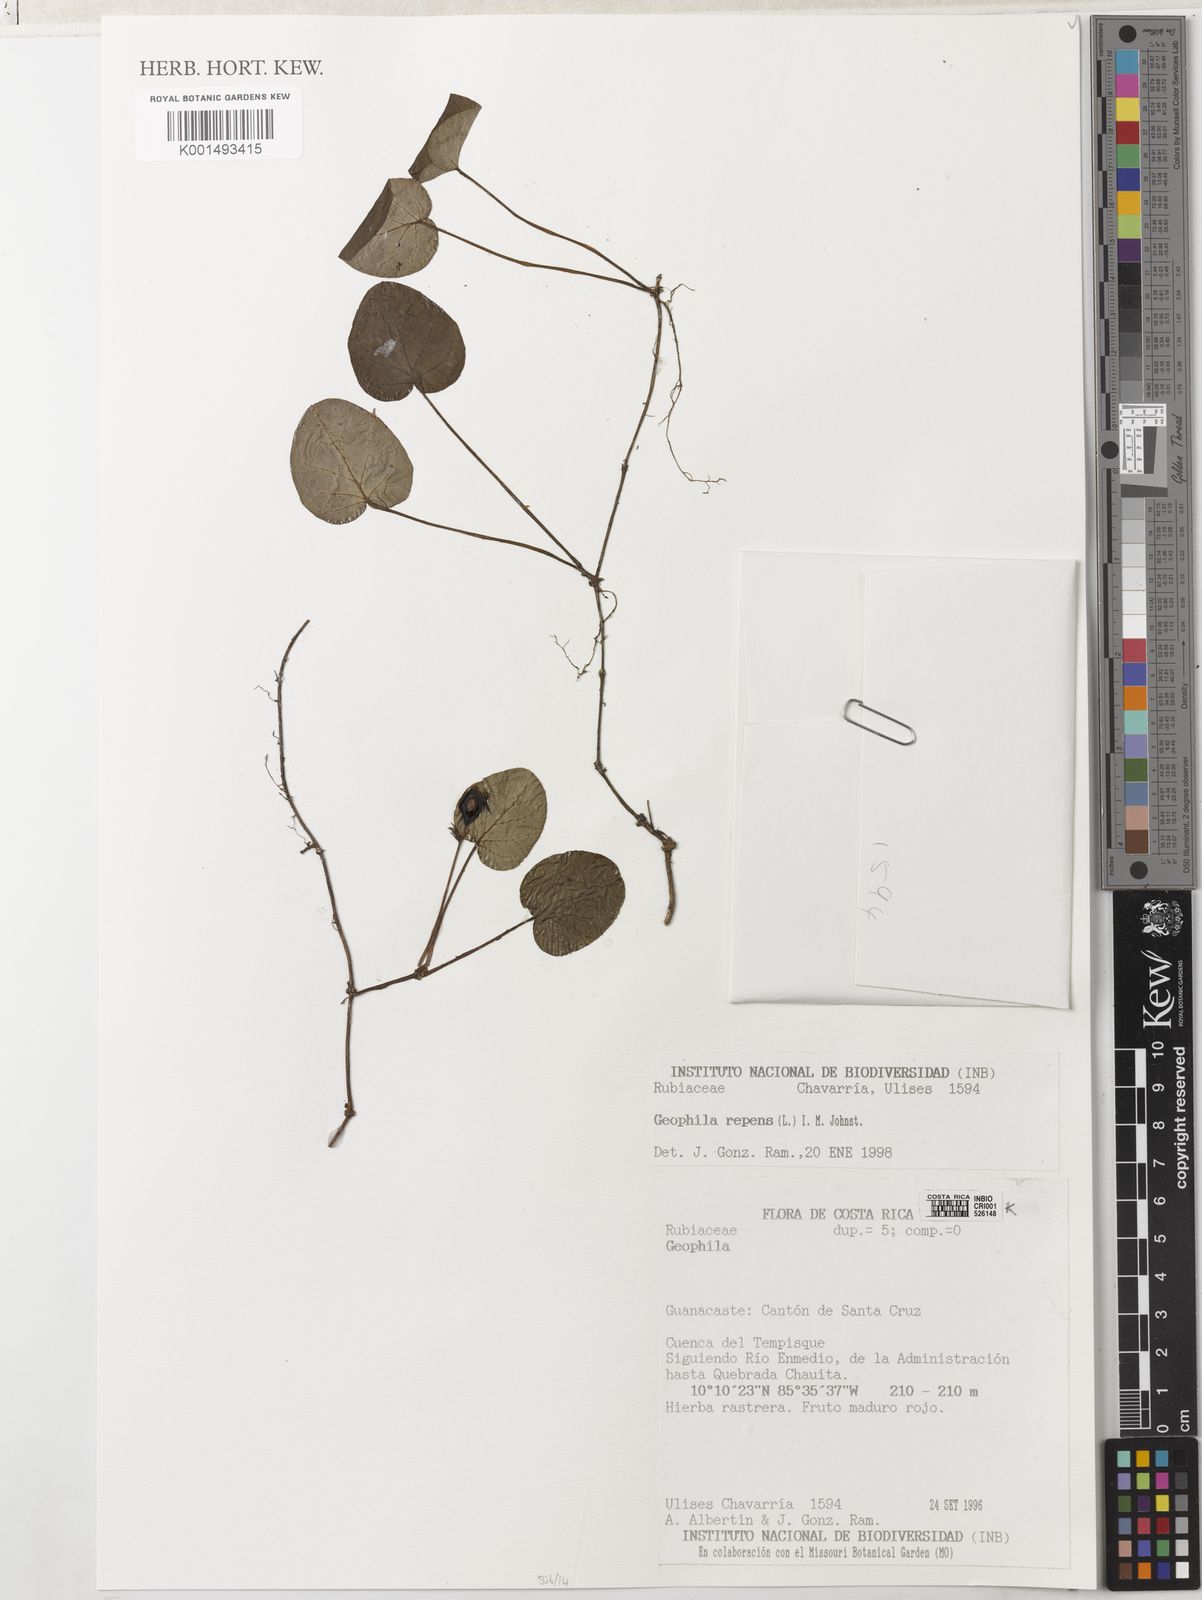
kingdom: Plantae
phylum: Tracheophyta
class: Magnoliopsida
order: Gentianales
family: Rubiaceae
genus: Geophila
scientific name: Geophila repens
